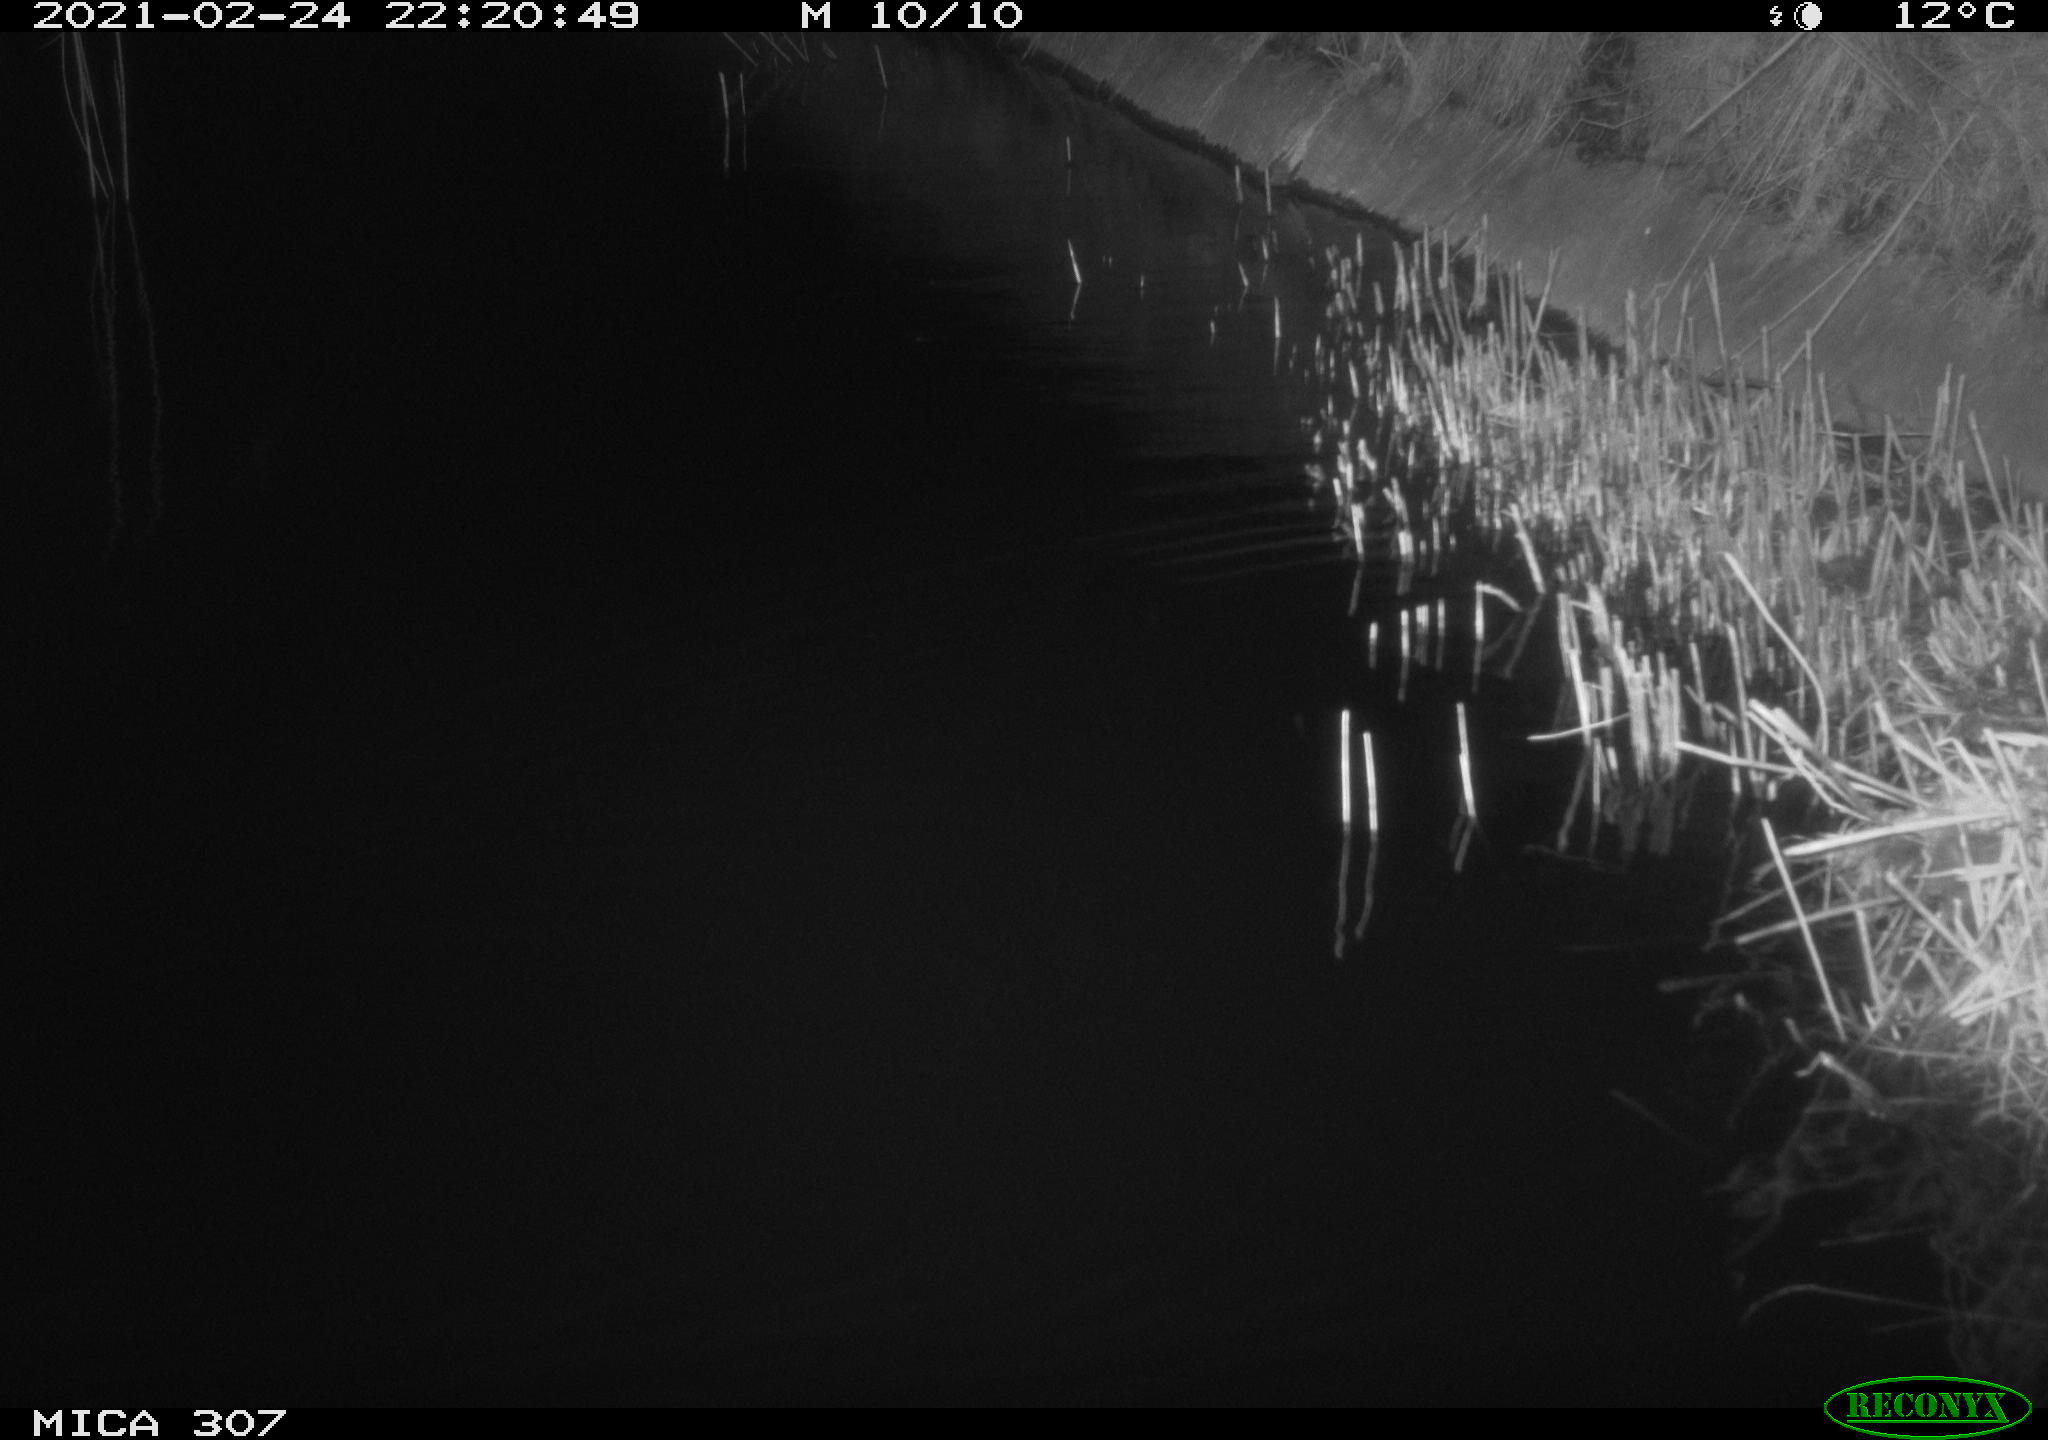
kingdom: Animalia
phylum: Chordata
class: Mammalia
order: Rodentia
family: Muridae
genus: Rattus
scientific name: Rattus norvegicus
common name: Brown rat
